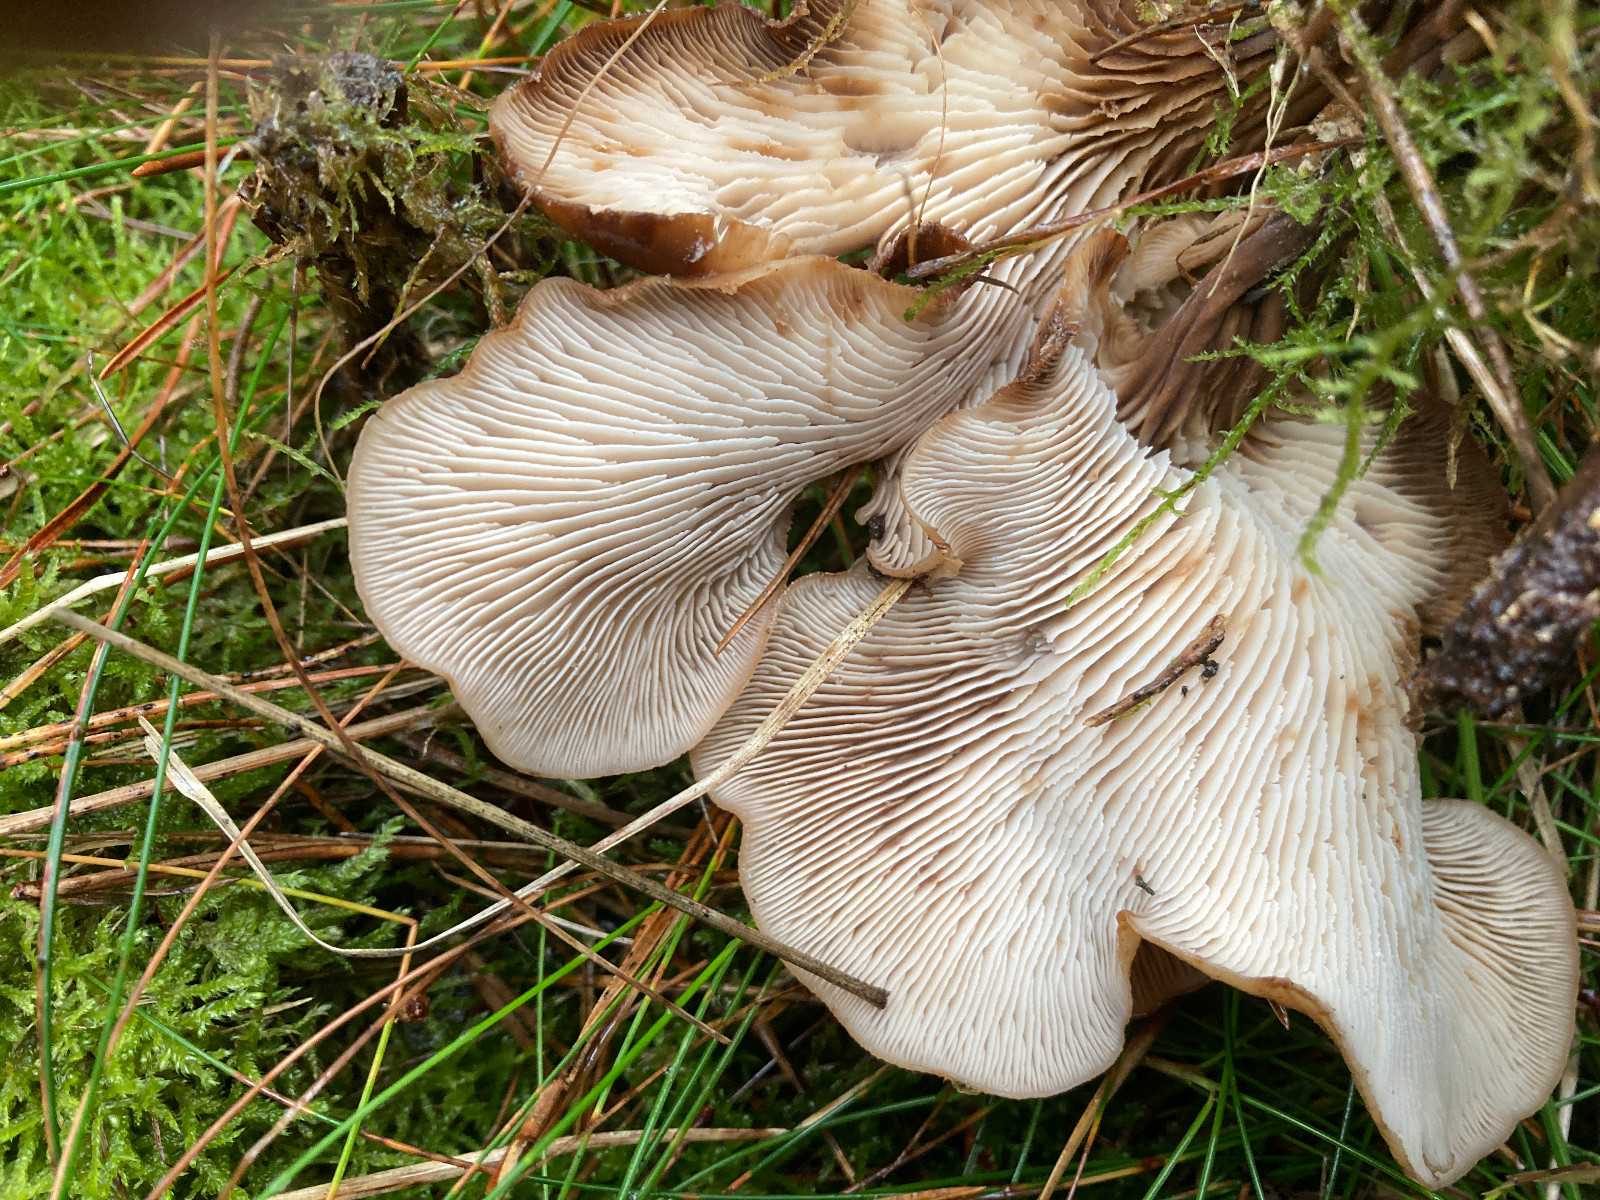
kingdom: Fungi
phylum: Basidiomycota
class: Agaricomycetes
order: Russulales
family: Auriscalpiaceae
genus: Lentinellus
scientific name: Lentinellus cochleatus
